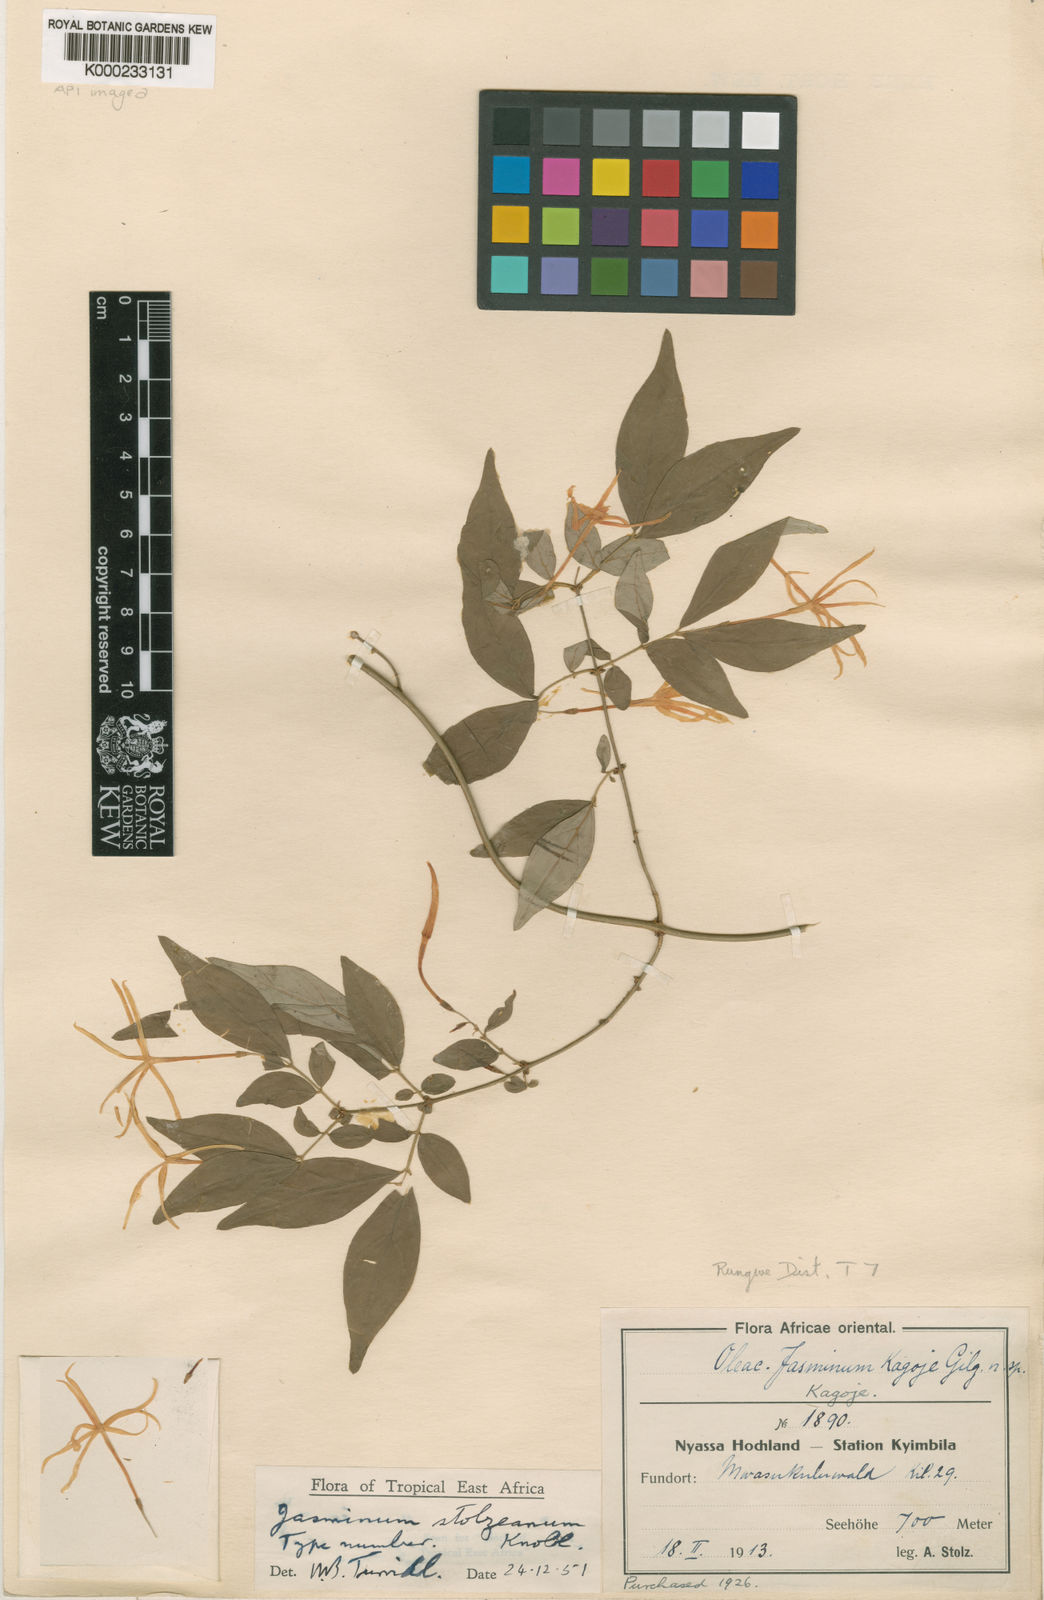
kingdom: Plantae
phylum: Tracheophyta
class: Magnoliopsida
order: Lamiales
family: Oleaceae
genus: Jasminum
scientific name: Jasminum streptopus
